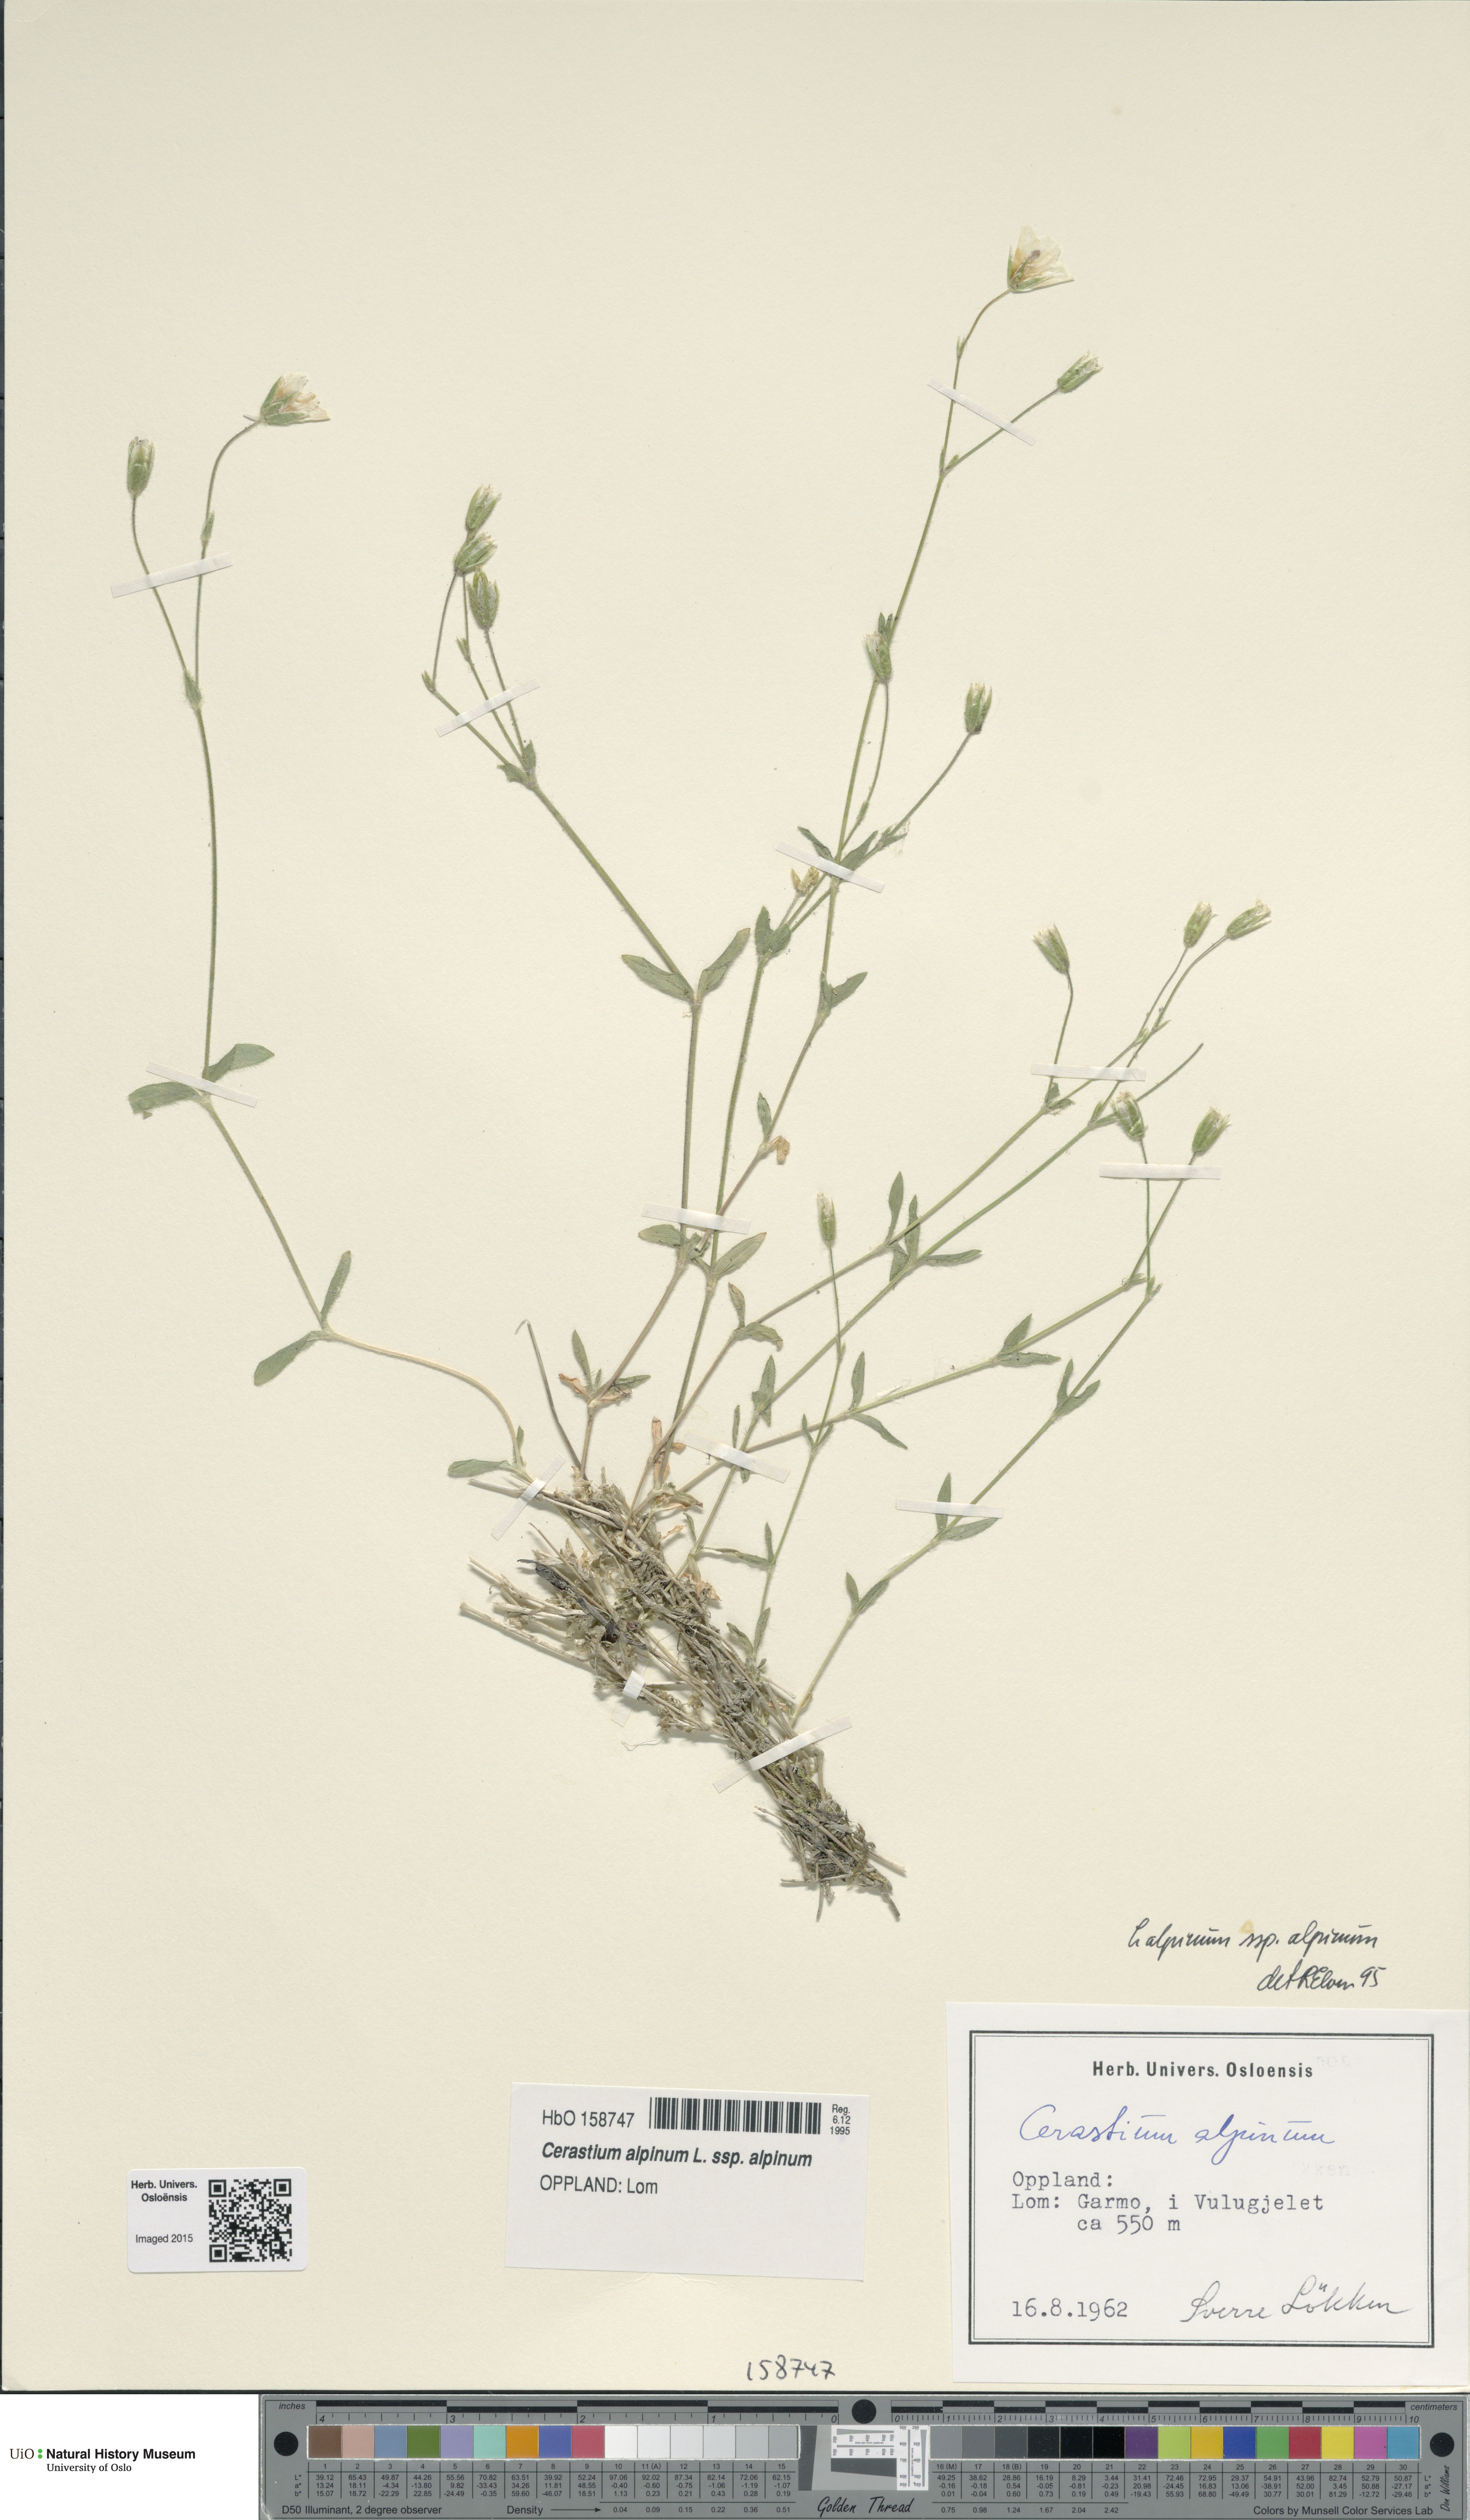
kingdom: Plantae
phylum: Tracheophyta
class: Magnoliopsida
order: Caryophyllales
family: Caryophyllaceae
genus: Cerastium
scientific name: Cerastium alpinum
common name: Alpine mouse-ear
